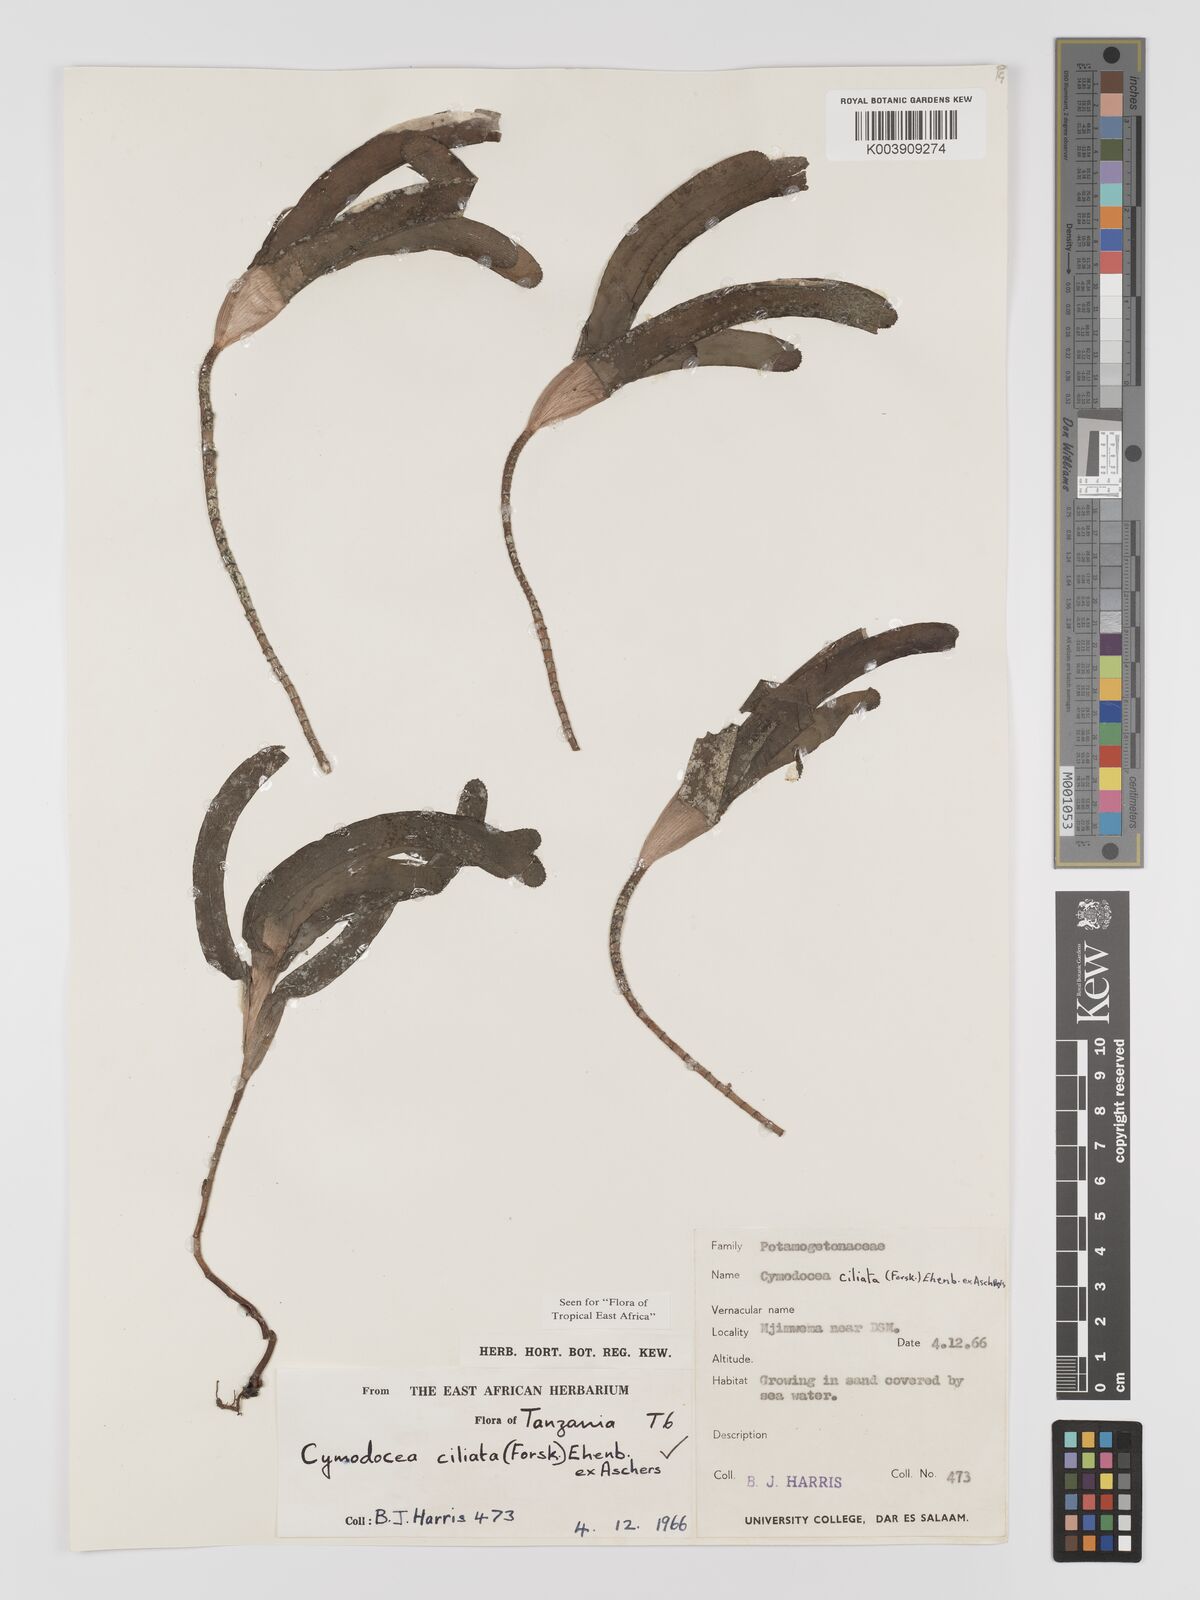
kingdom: Plantae
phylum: Tracheophyta
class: Liliopsida
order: Alismatales
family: Cymodoceaceae
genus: Thalassodendron
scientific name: Thalassodendron ciliatum
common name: Species code: tc
